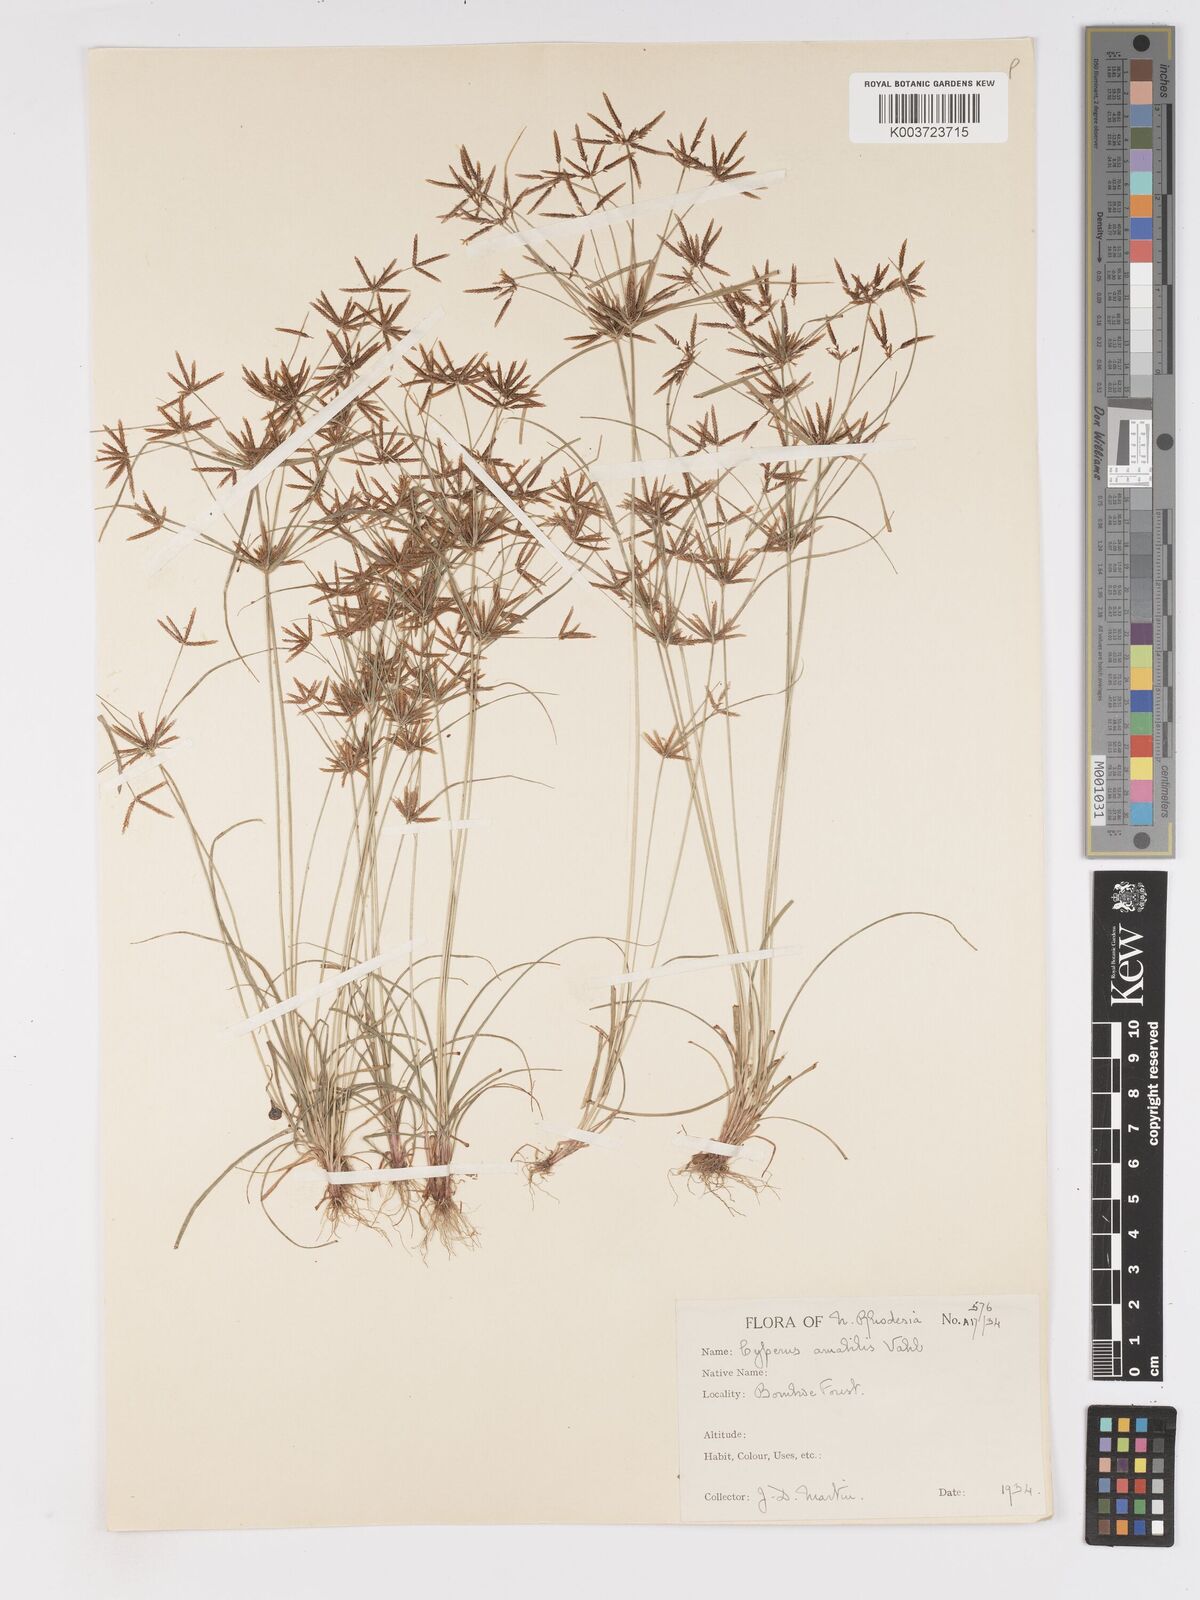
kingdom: Plantae
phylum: Tracheophyta
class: Liliopsida
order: Poales
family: Cyperaceae
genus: Cyperus
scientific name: Cyperus amabilis
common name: Foothill flat sedge
